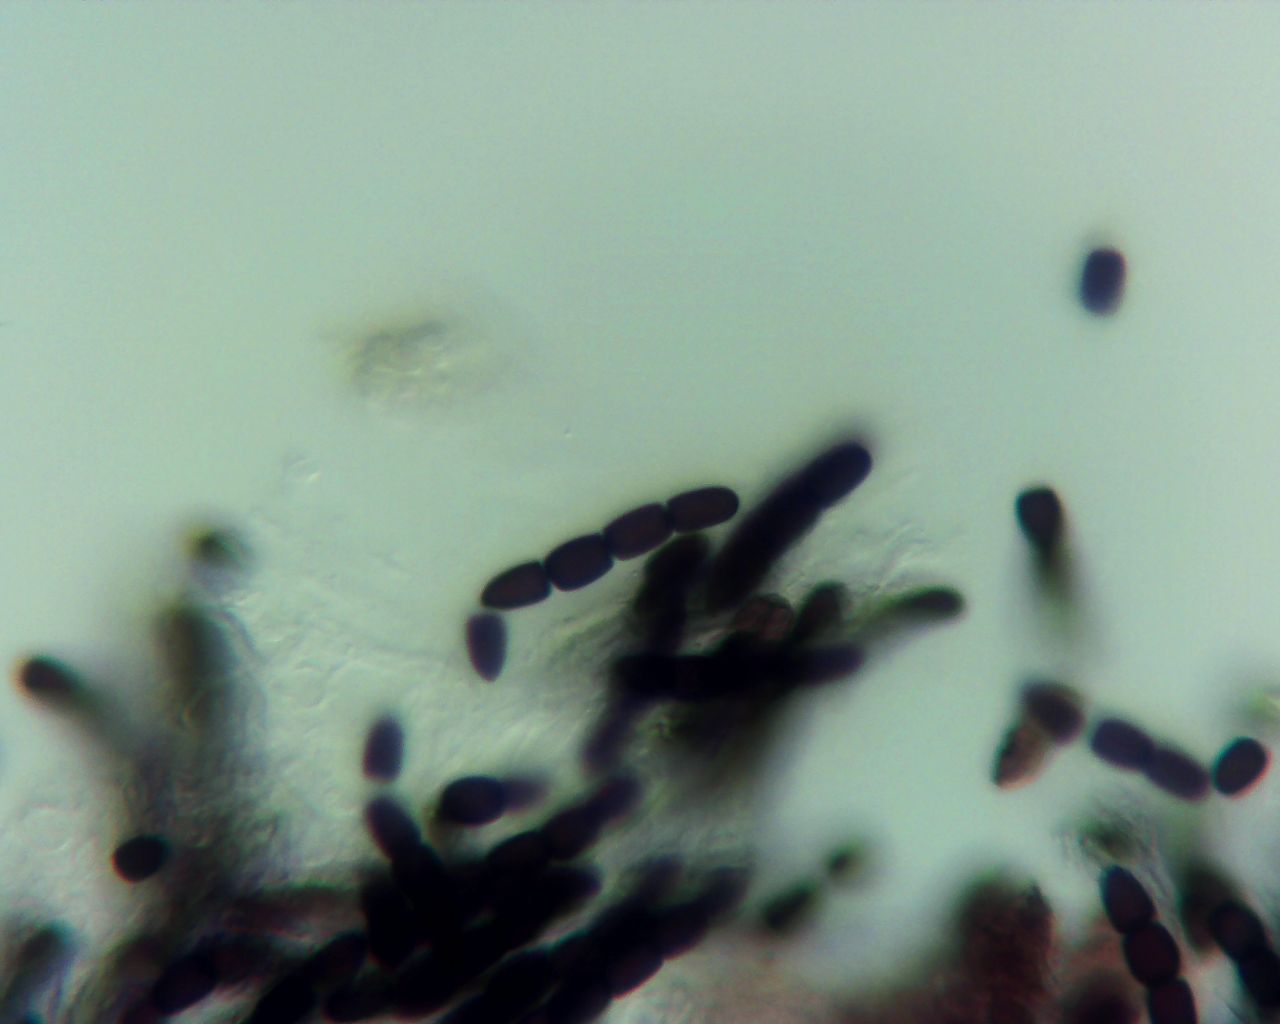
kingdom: Fungi
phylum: Ascomycota
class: Dothideomycetes
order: Pleosporales
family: Sporormiaceae
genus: Sporormiella
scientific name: Sporormiella australis
